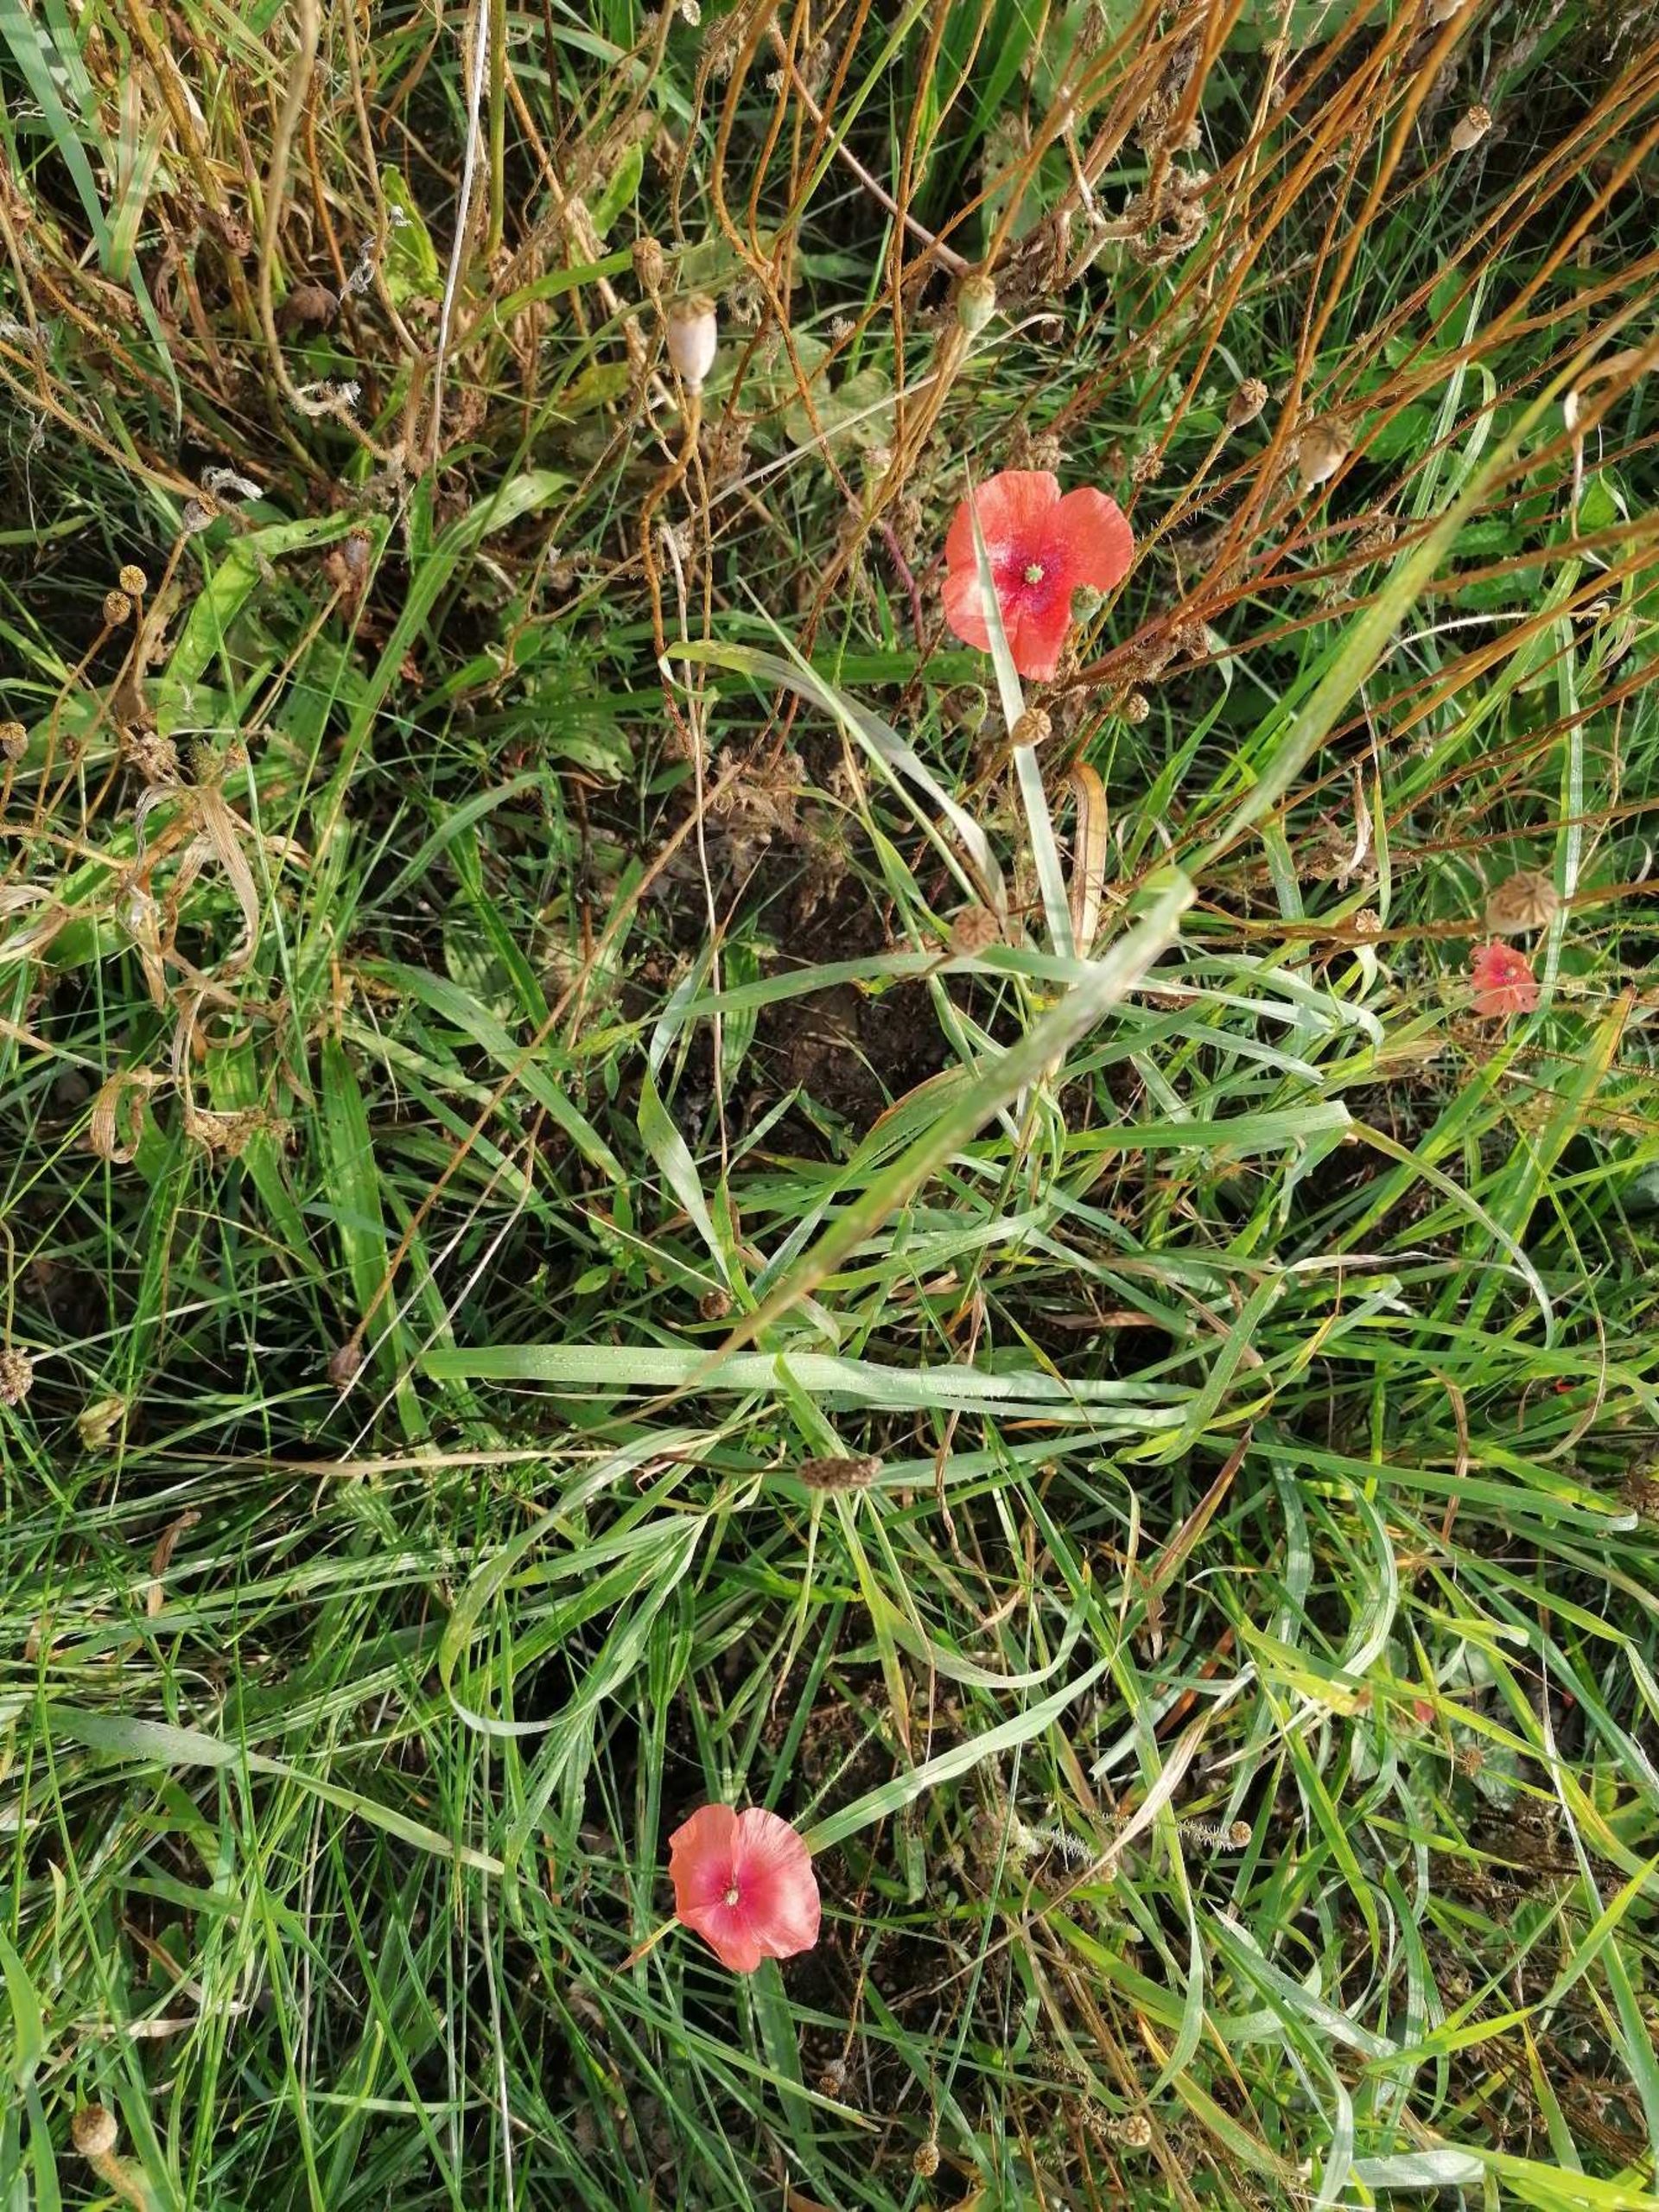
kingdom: Plantae
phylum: Tracheophyta
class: Magnoliopsida
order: Ranunculales
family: Papaveraceae
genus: Papaver
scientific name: Papaver dubium
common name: Gærde-valmue
